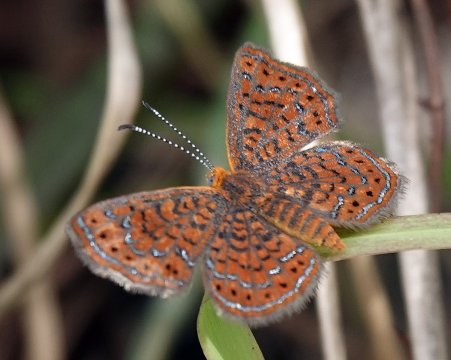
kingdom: Animalia
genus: Calephelis
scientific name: Calephelis virginiensis
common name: Little Metalmark
